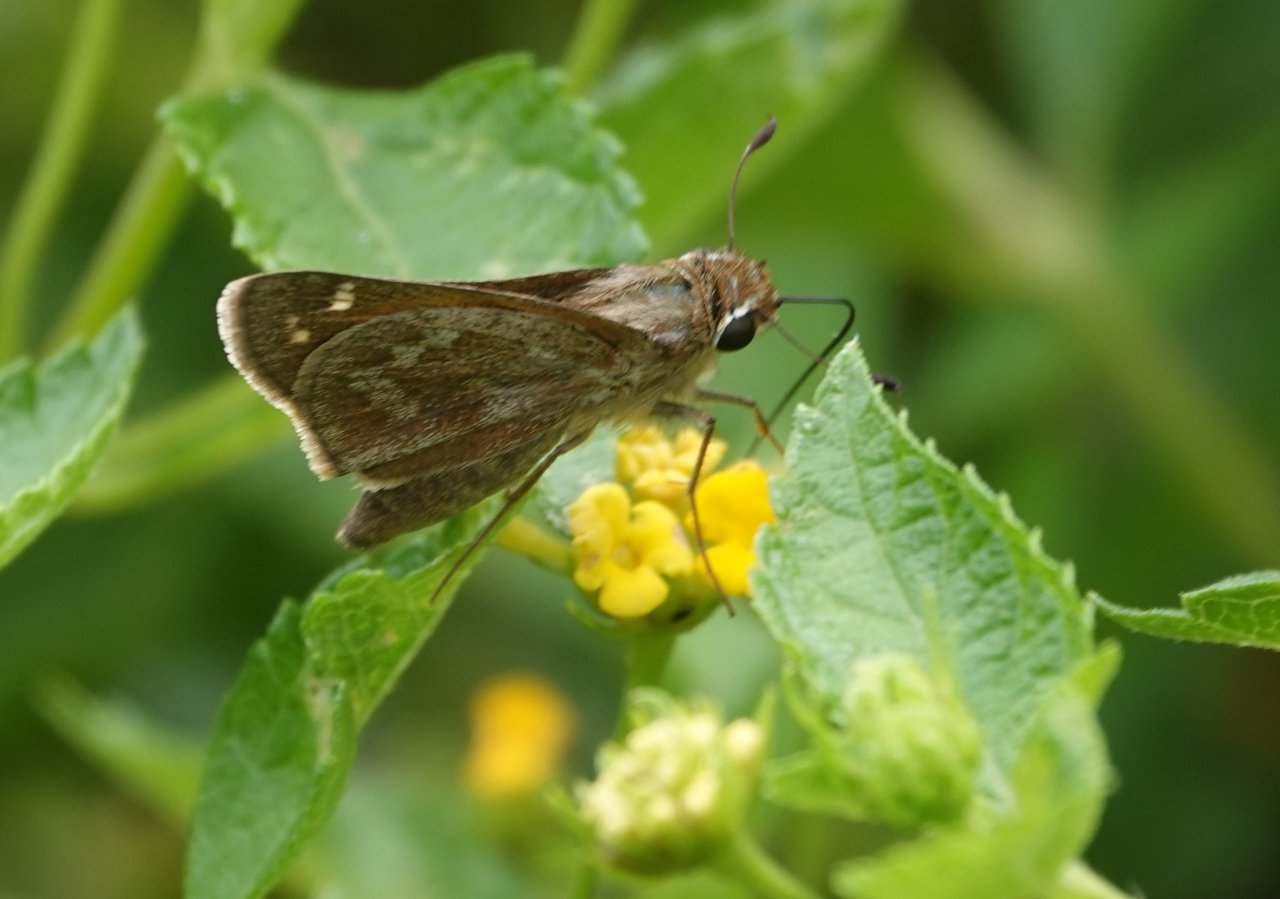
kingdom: Animalia
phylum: Arthropoda
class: Insecta
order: Lepidoptera
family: Hesperiidae
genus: Atalopedes
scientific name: Atalopedes campestris
